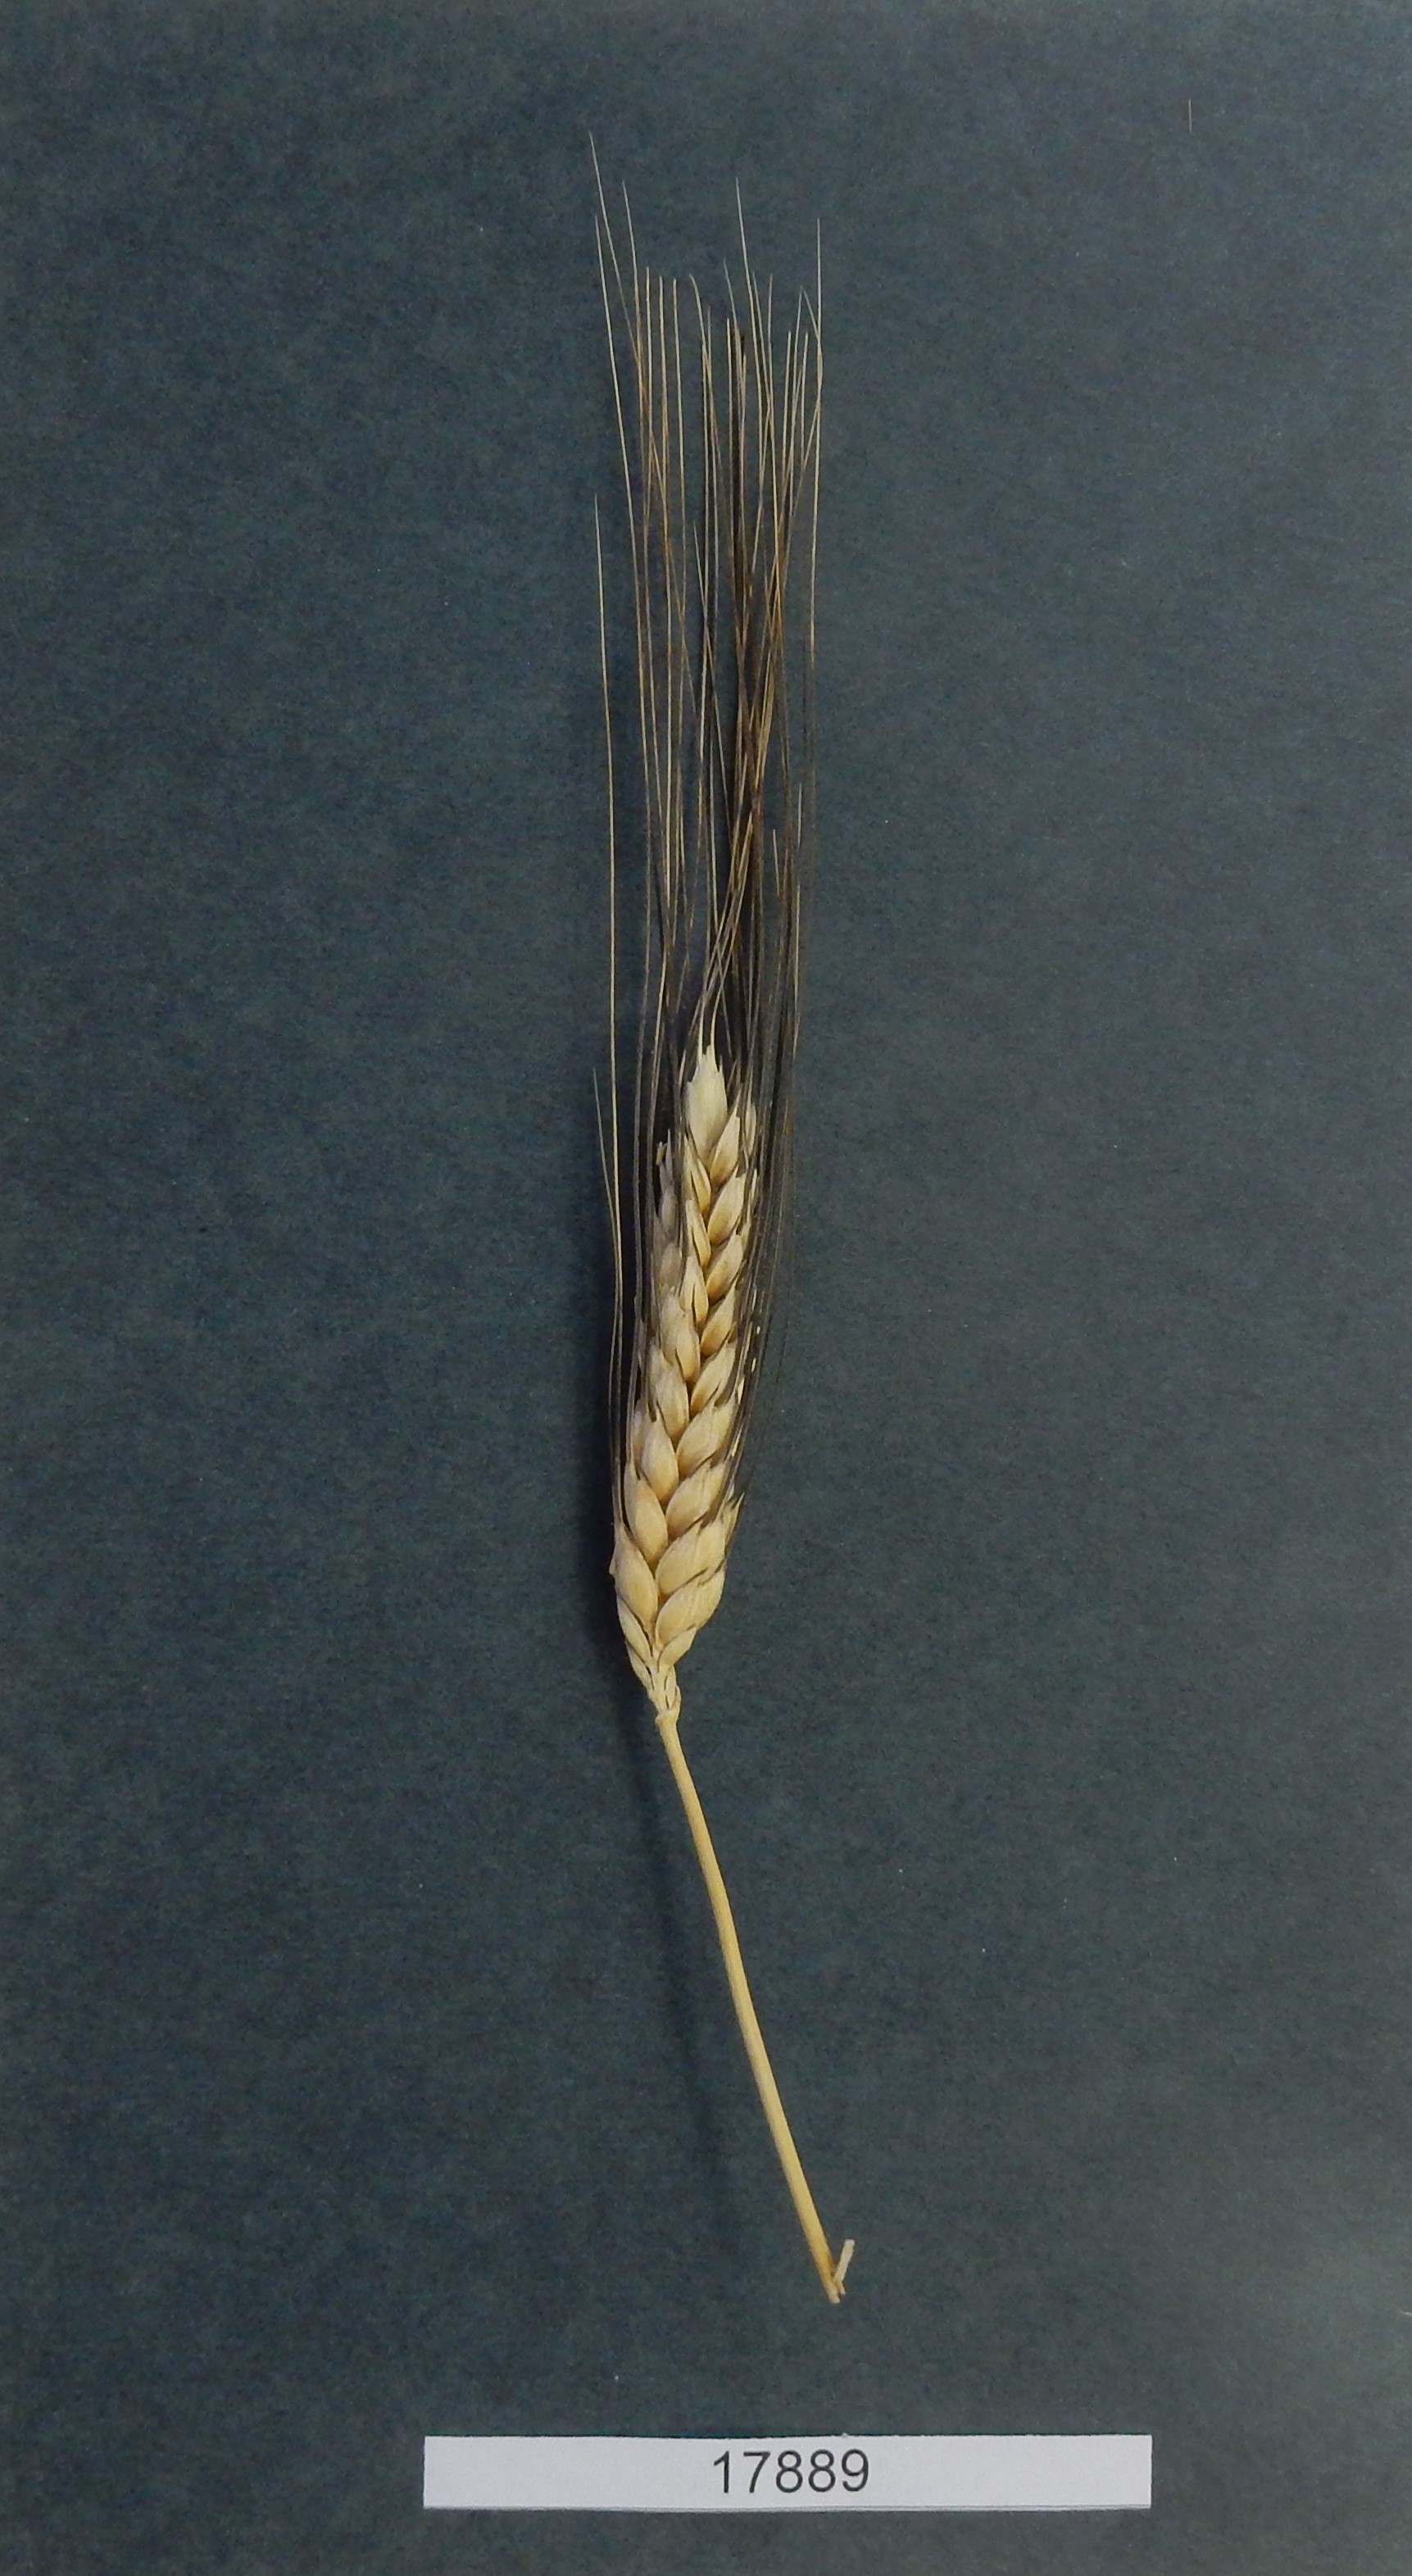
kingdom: Plantae
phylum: Tracheophyta
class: Liliopsida
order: Poales
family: Poaceae
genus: Triticum
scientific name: Triticum turgidum
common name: Wheat
